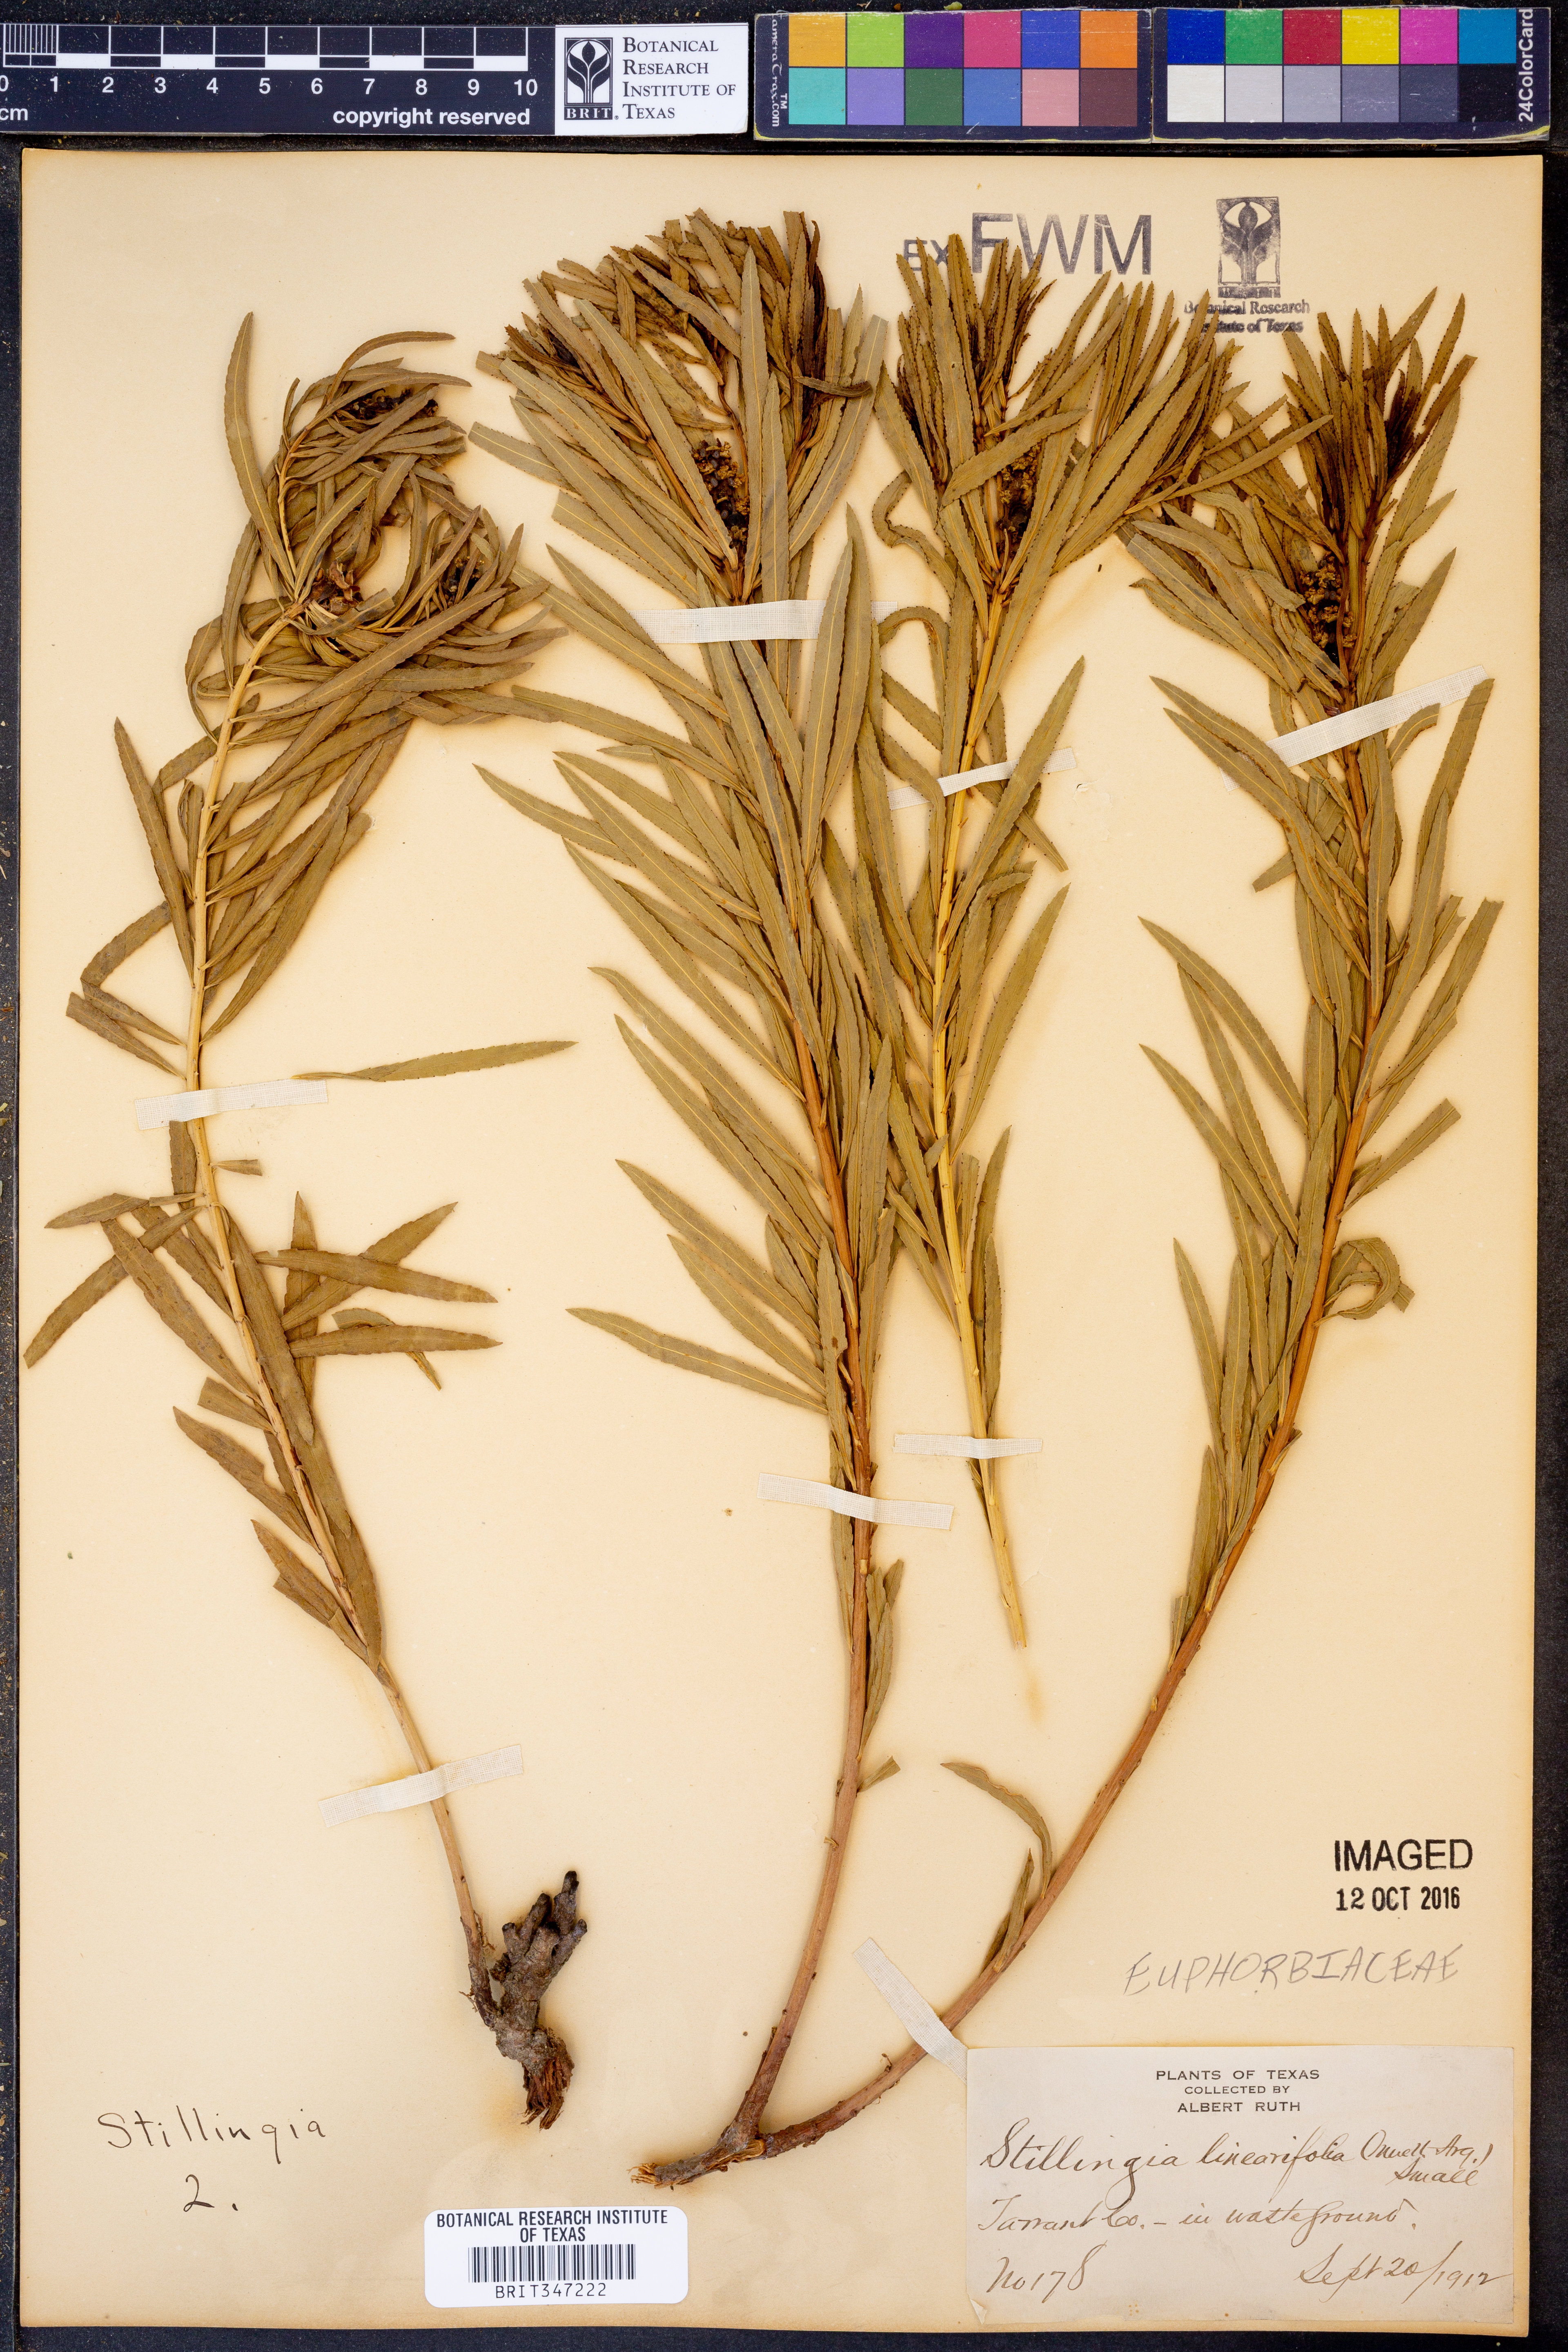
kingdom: Plantae
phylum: Tracheophyta
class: Magnoliopsida
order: Malpighiales
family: Euphorbiaceae
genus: Stillingia
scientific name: Stillingia linearifolia
